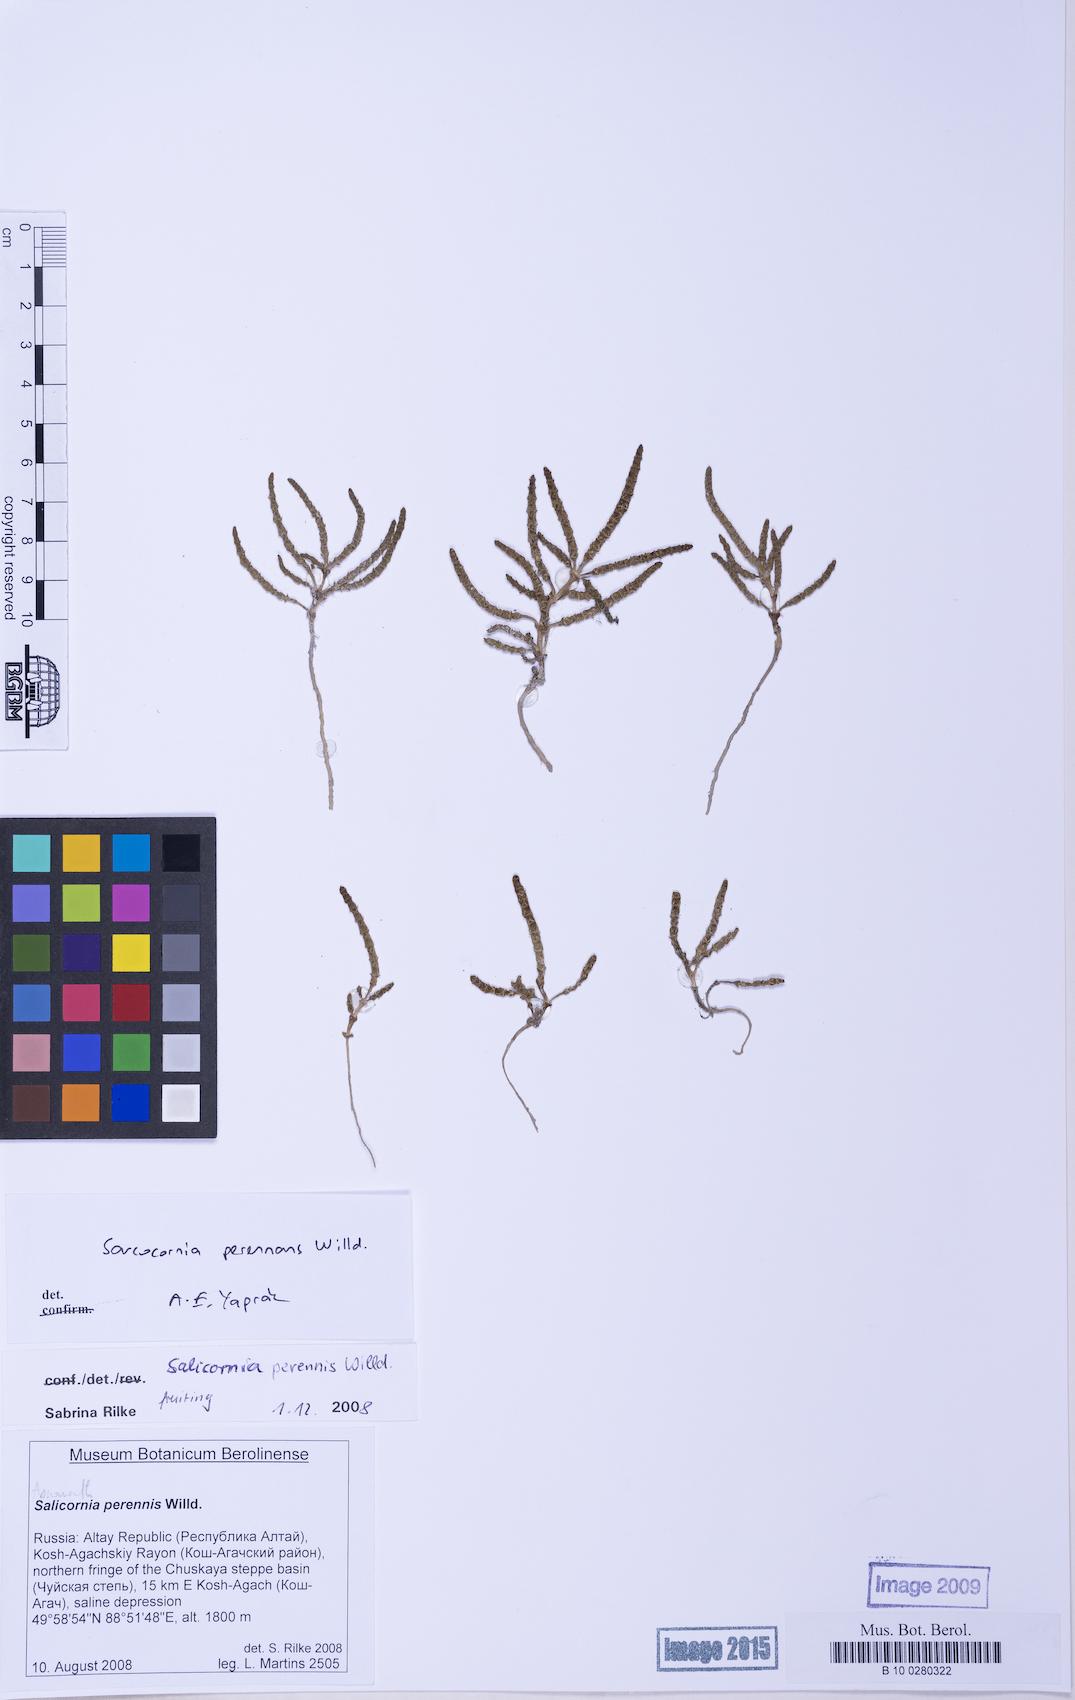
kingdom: Plantae
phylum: Tracheophyta
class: Magnoliopsida
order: Caryophyllales
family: Amaranthaceae
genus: Salicornia
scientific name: Salicornia perennans
